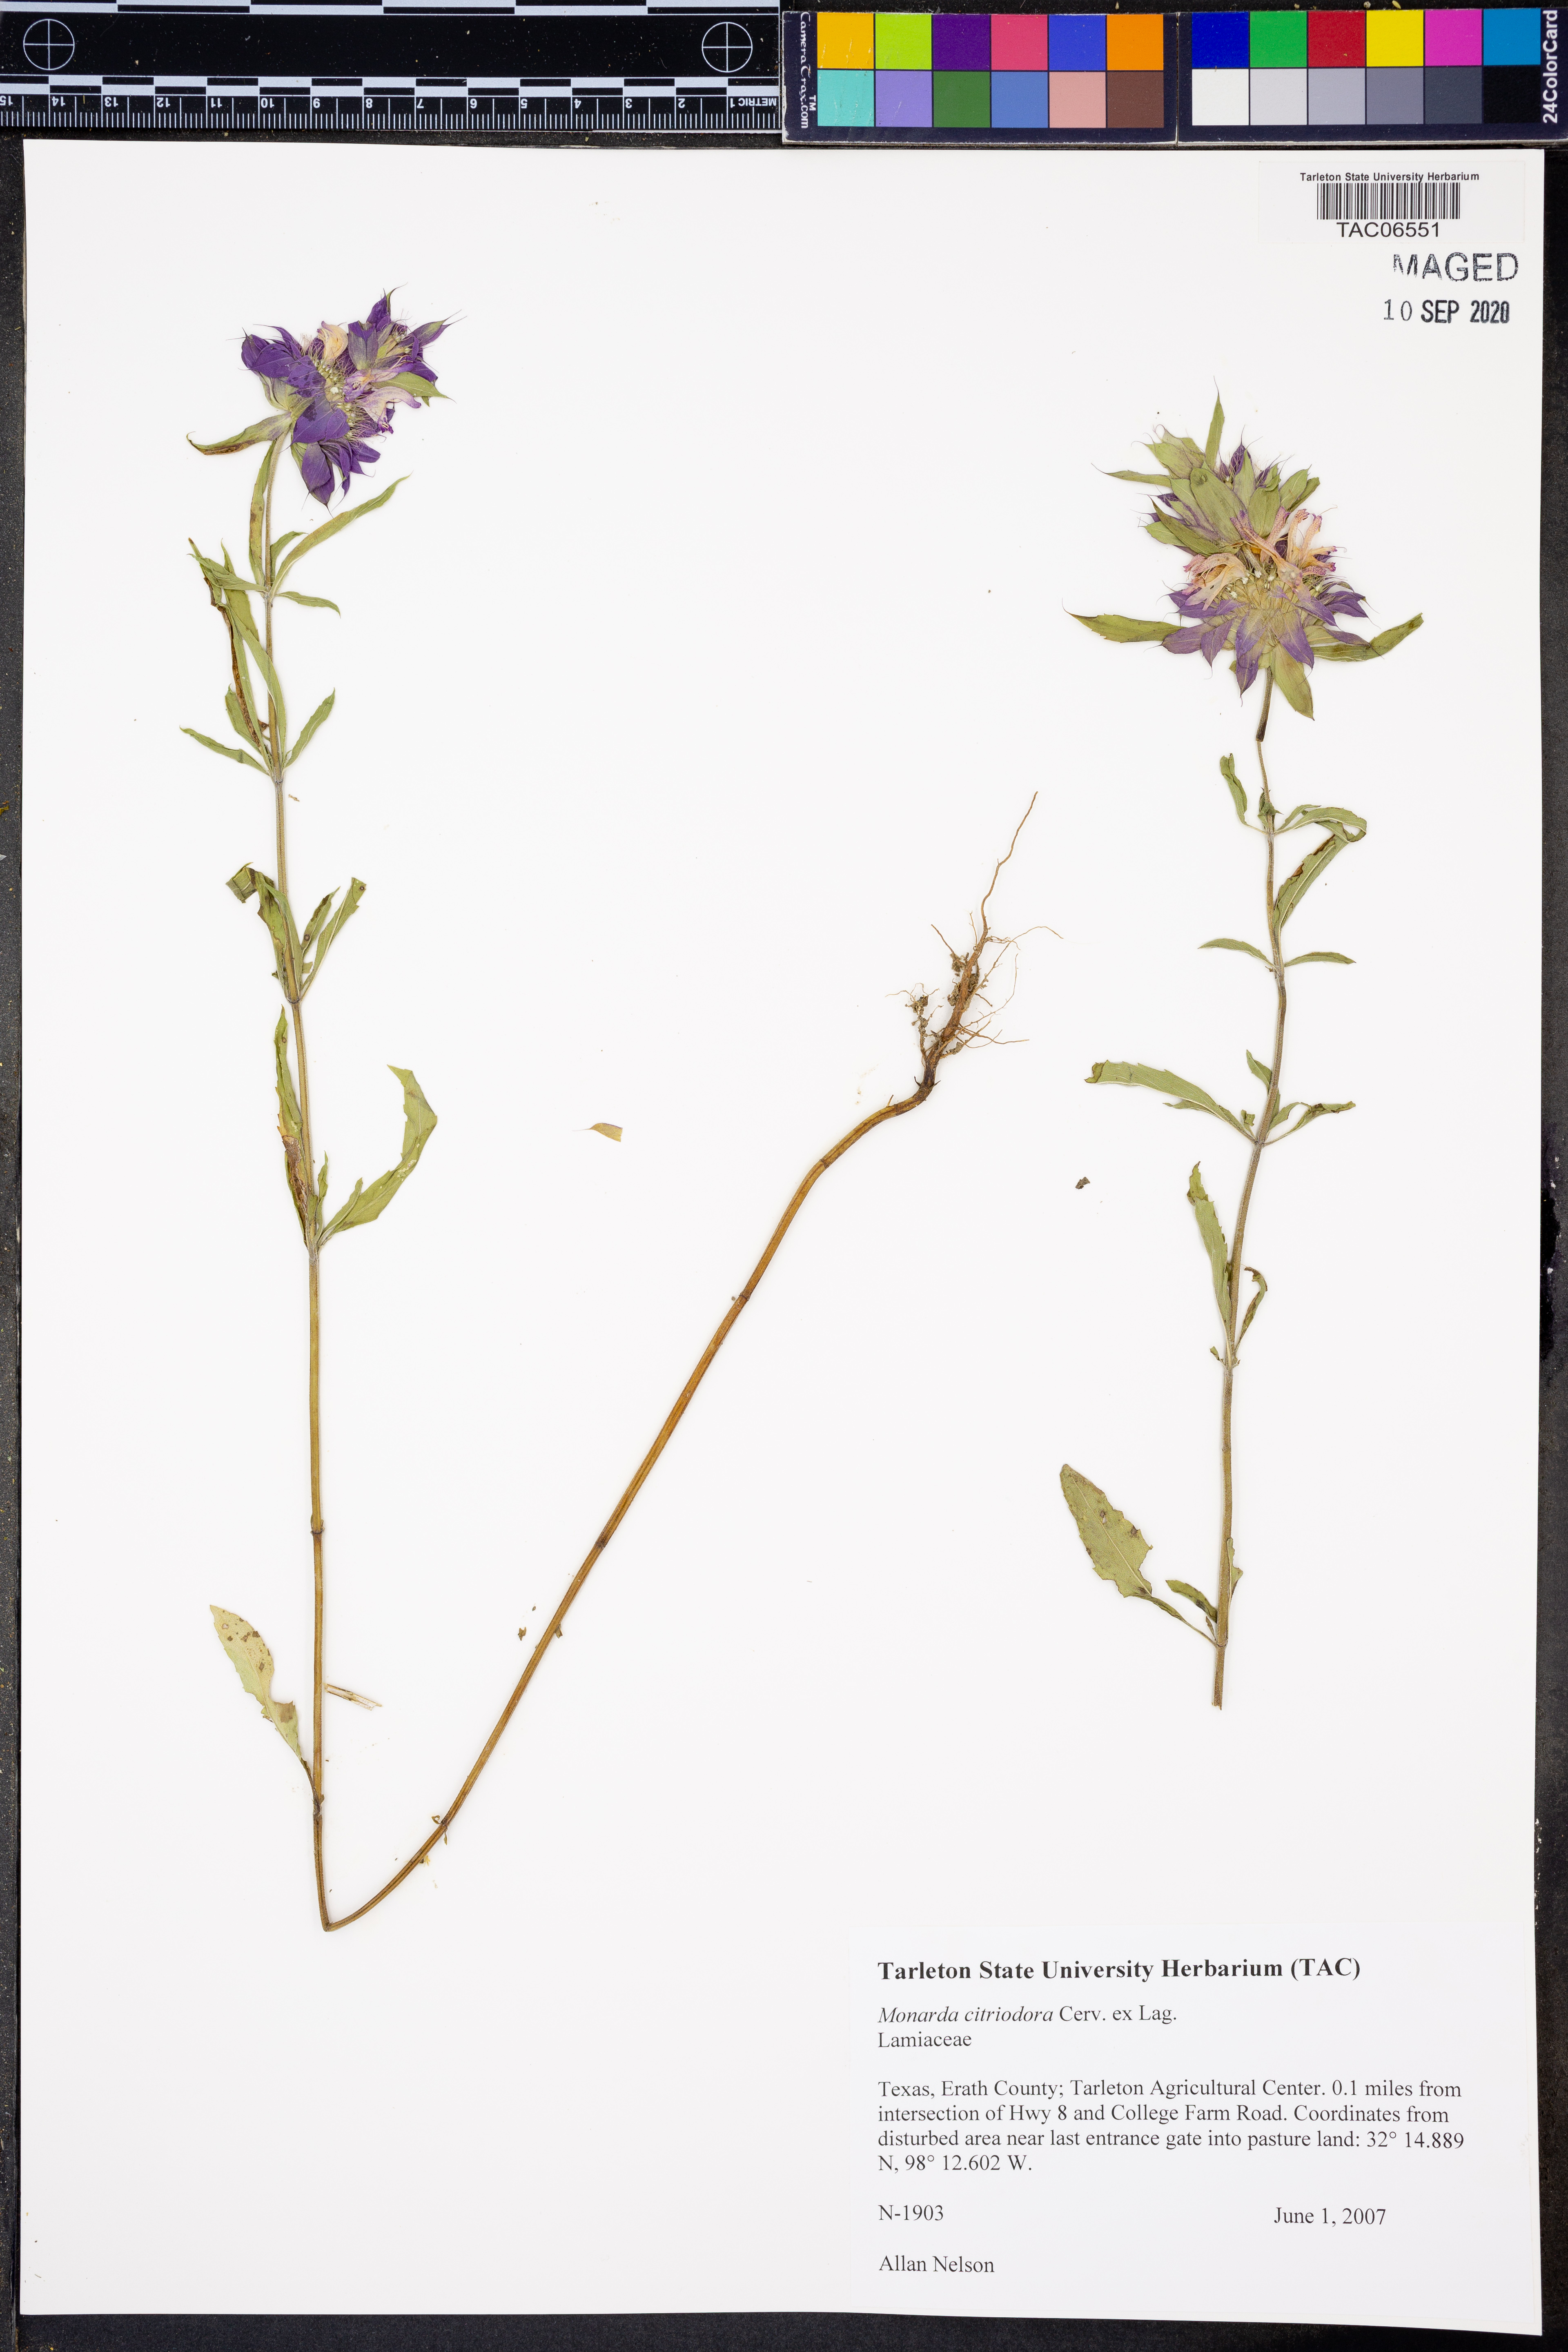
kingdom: Plantae
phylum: Tracheophyta
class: Magnoliopsida
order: Lamiales
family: Lamiaceae
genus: Monarda
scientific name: Monarda citriodora
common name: Lemon beebalm
